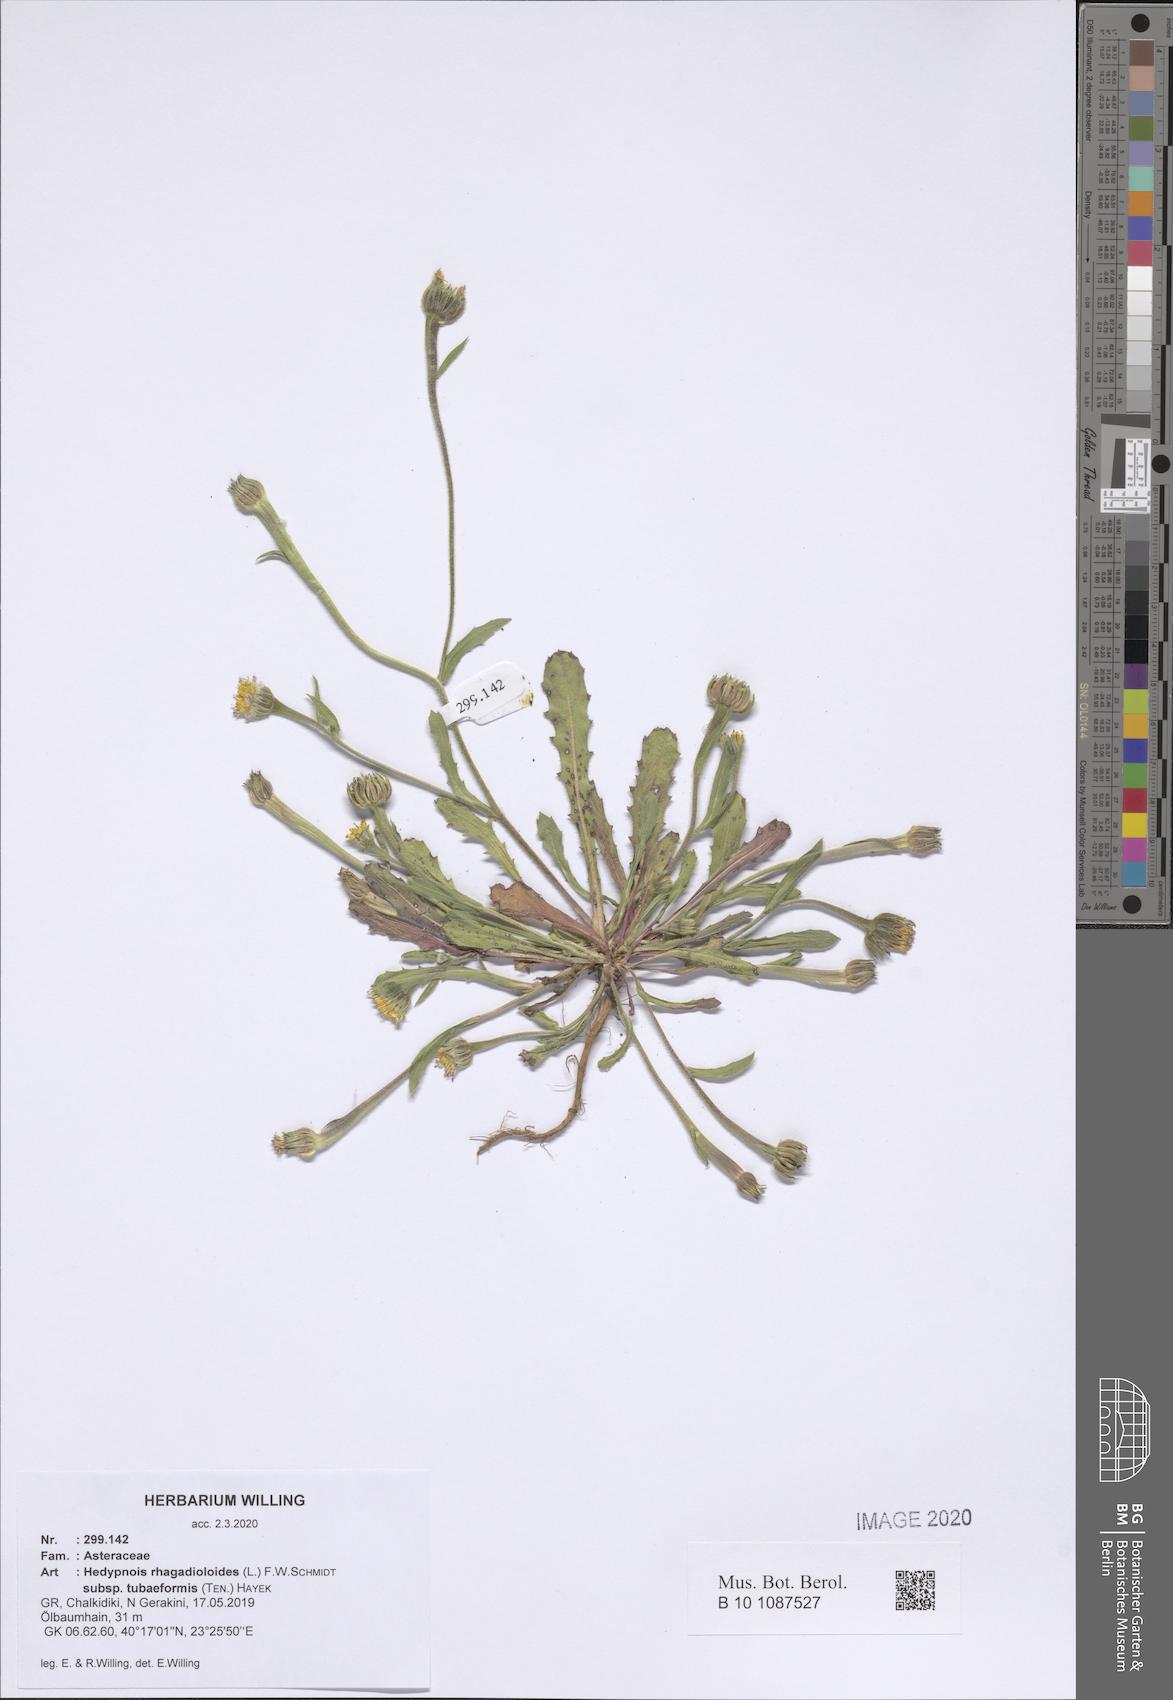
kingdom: Plantae
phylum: Tracheophyta
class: Magnoliopsida
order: Asterales
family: Asteraceae
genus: Hedypnois
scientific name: Hedypnois rhagadioloides
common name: Cretan weed
